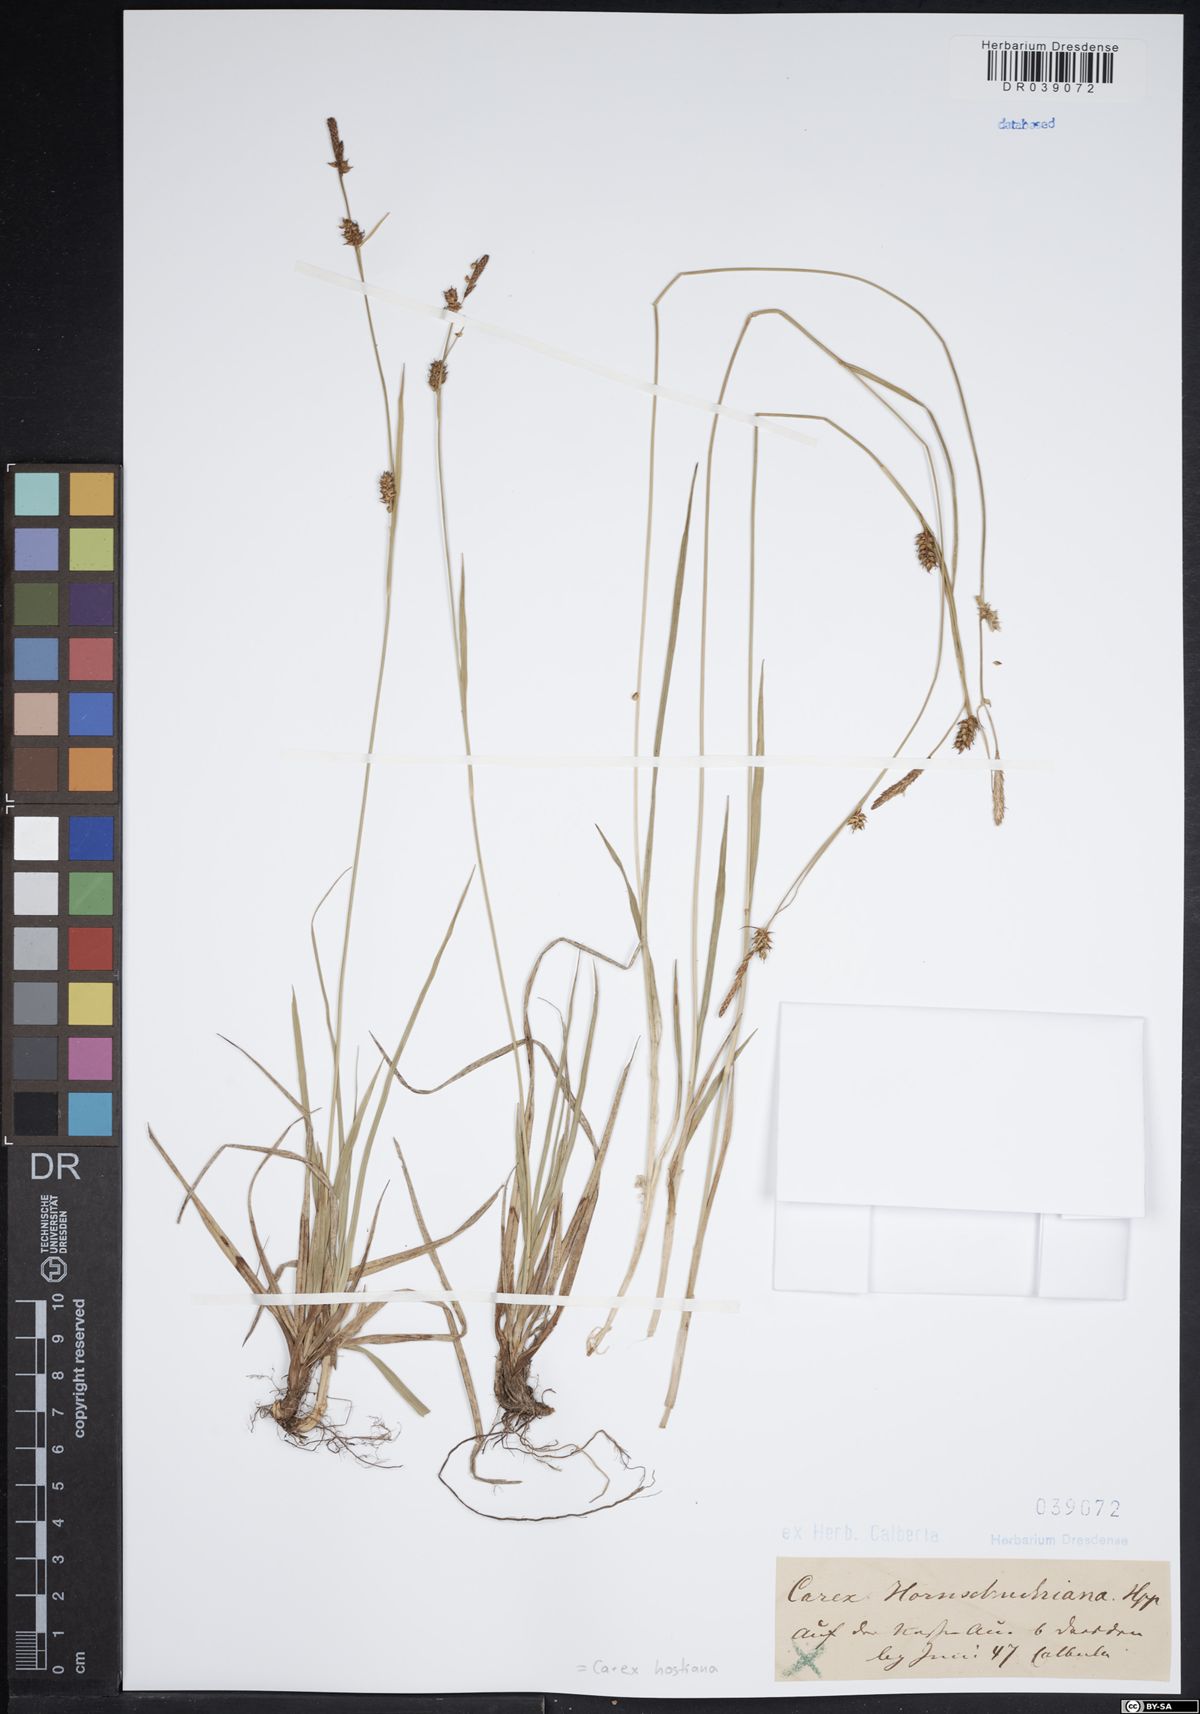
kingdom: Plantae
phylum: Tracheophyta
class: Liliopsida
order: Poales
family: Cyperaceae
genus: Carex
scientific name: Carex hostiana
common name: Tawny sedge
